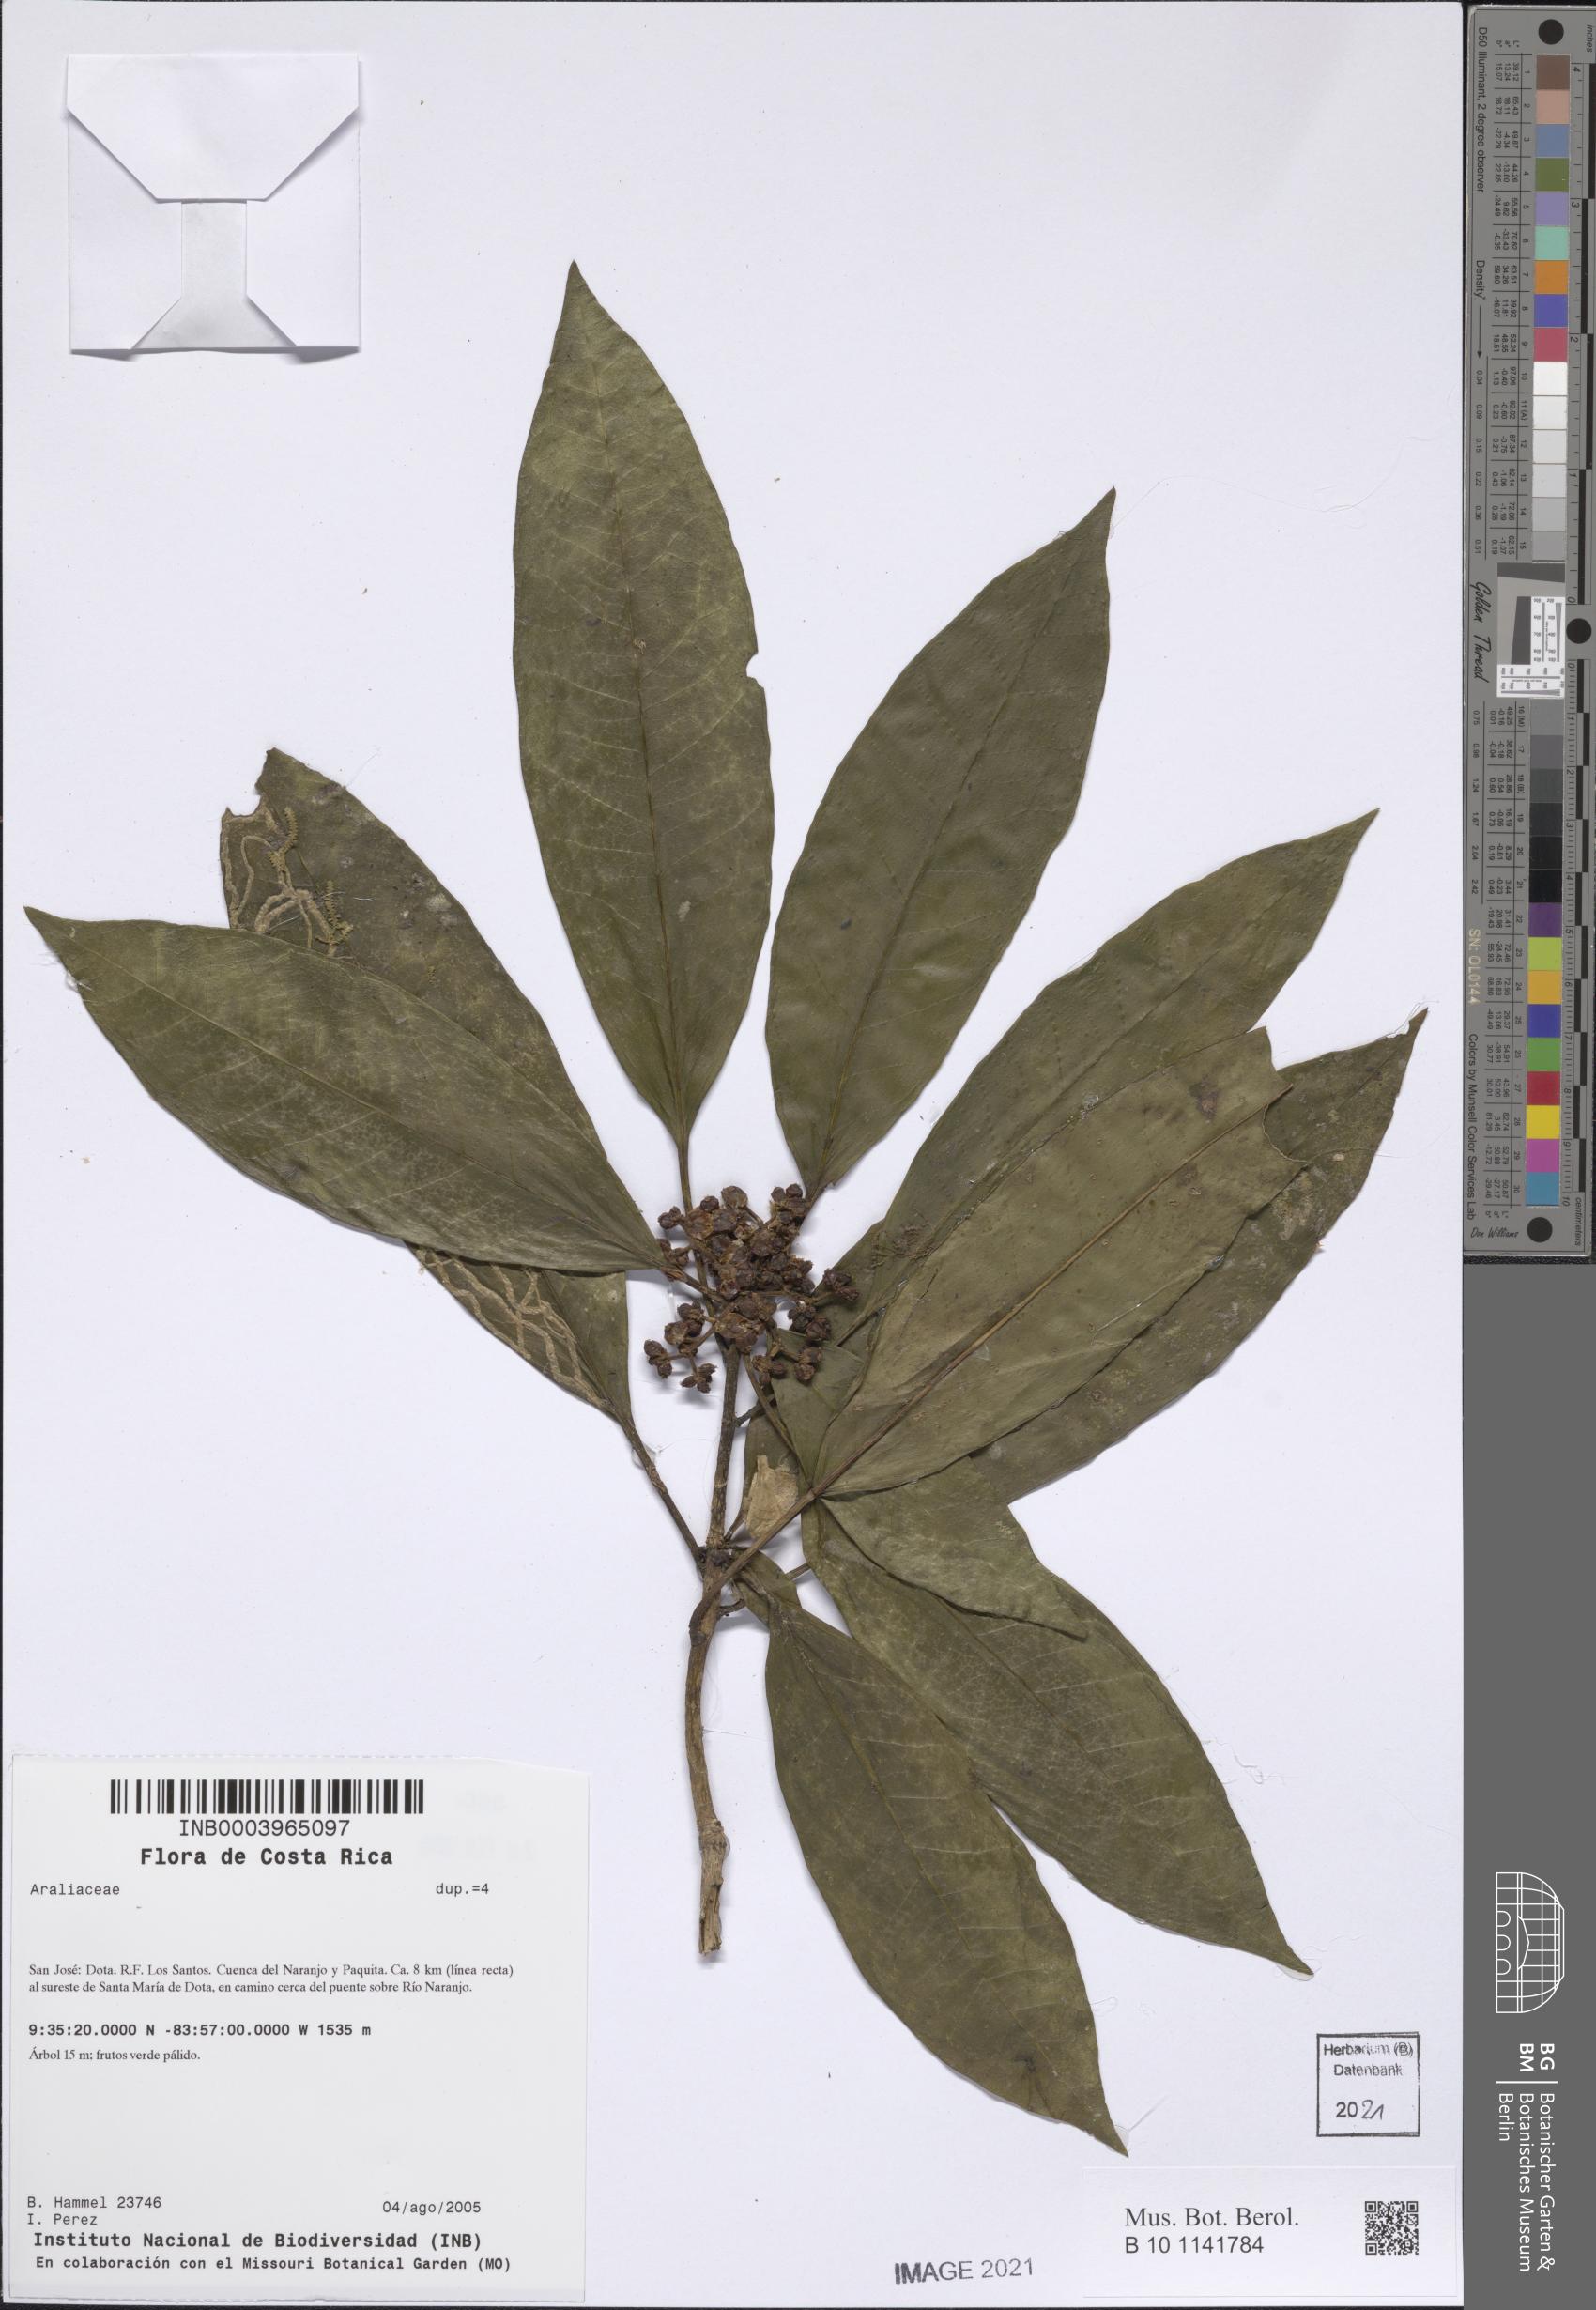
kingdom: Plantae
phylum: Tracheophyta
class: Magnoliopsida
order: Apiales
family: Araliaceae
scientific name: Araliaceae
